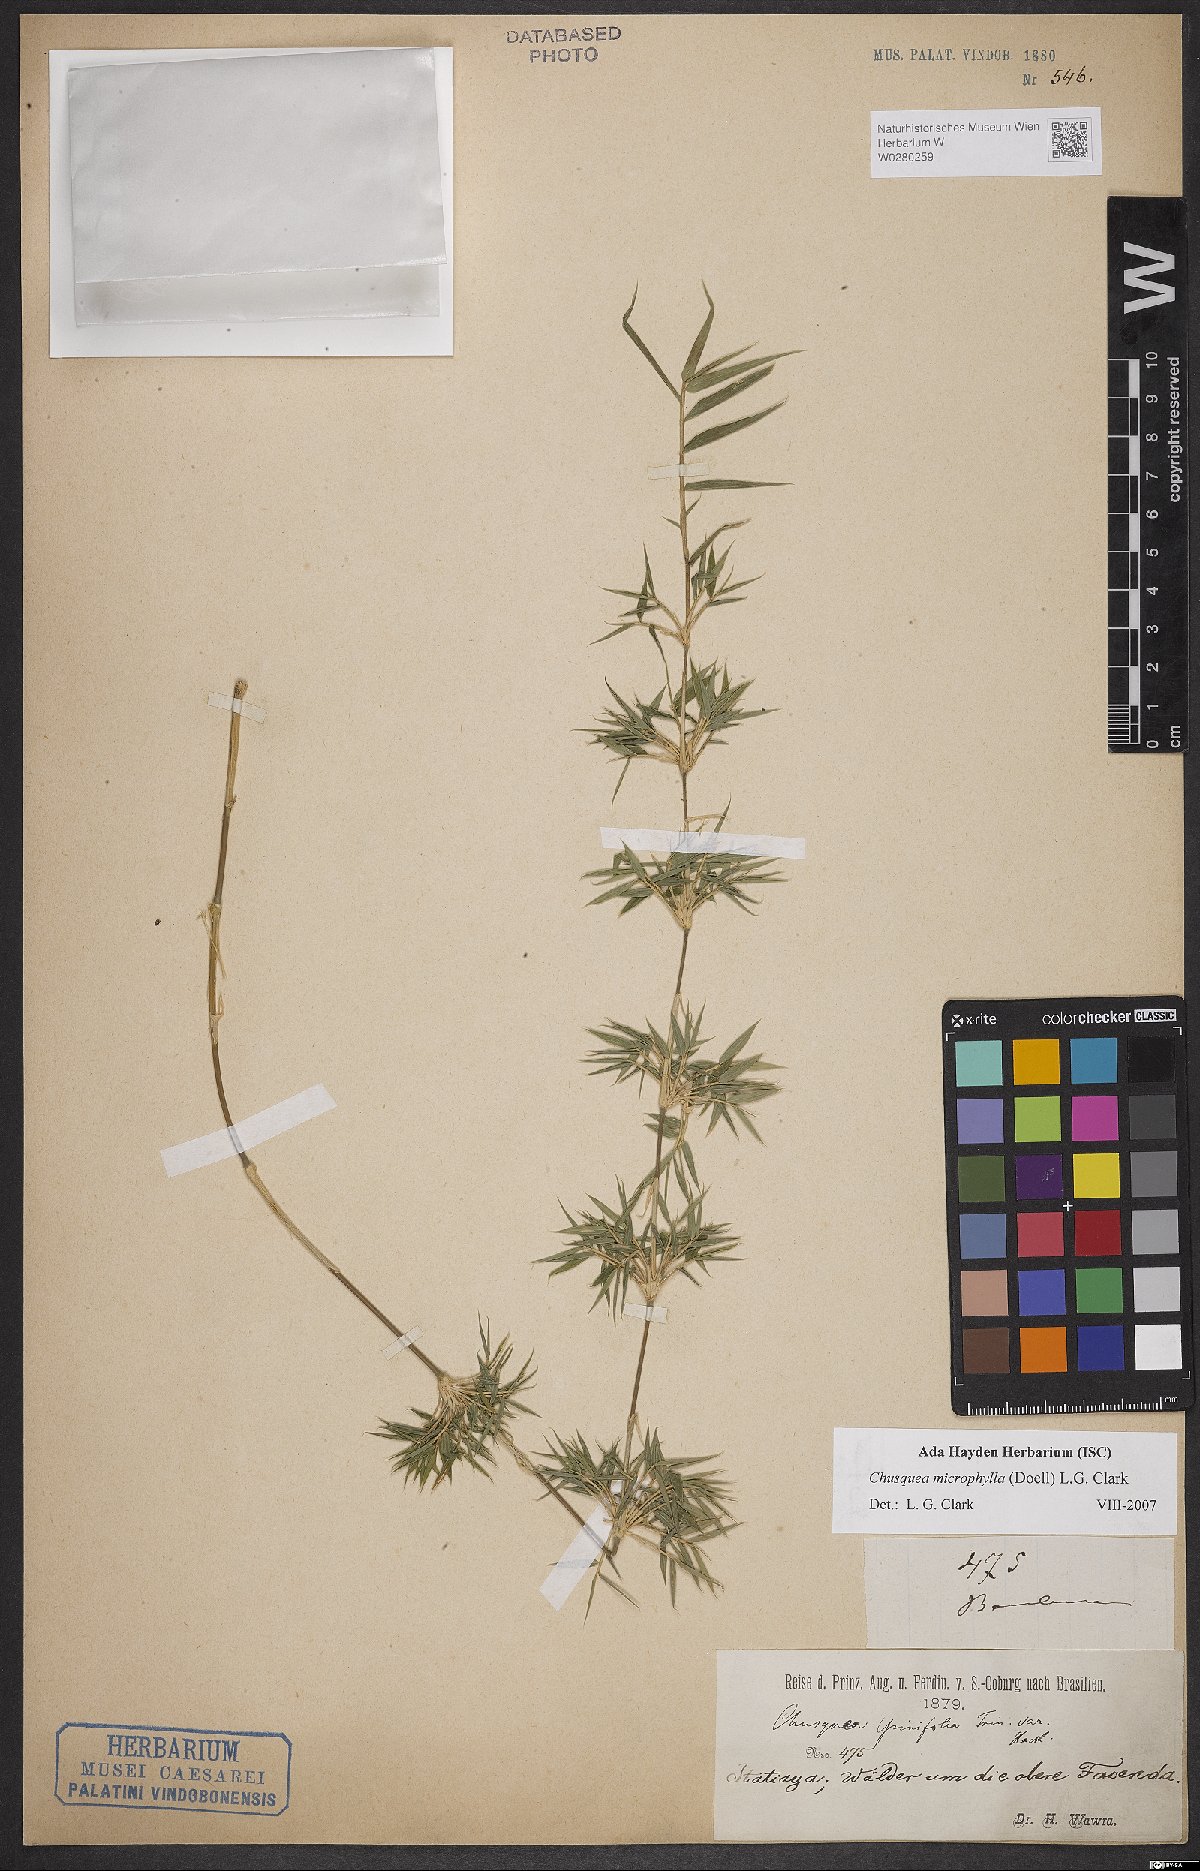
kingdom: Plantae
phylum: Tracheophyta
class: Liliopsida
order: Poales
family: Poaceae
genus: Chusquea
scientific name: Chusquea microphylla
